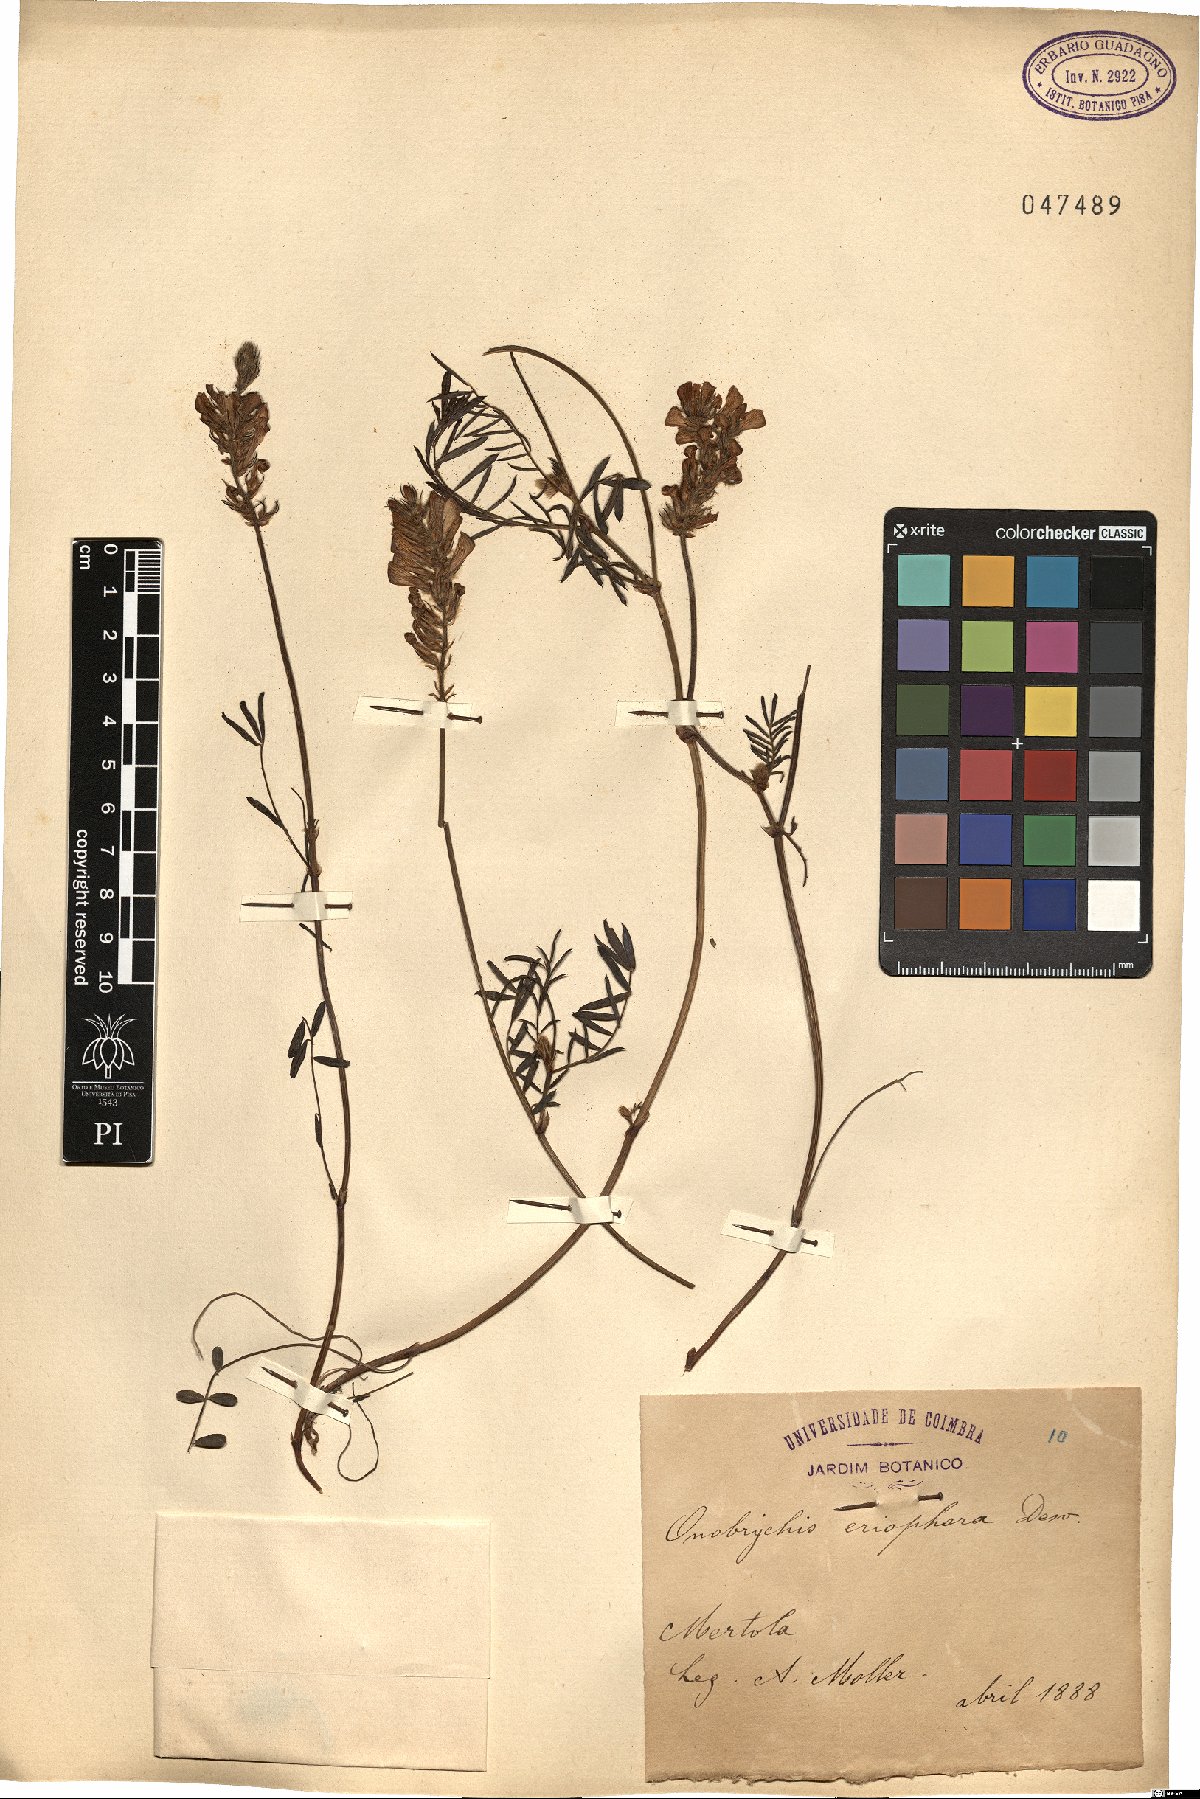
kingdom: Plantae
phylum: Tracheophyta
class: Magnoliopsida
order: Fabales
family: Fabaceae
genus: Onobrychis
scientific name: Onobrychis humilis
